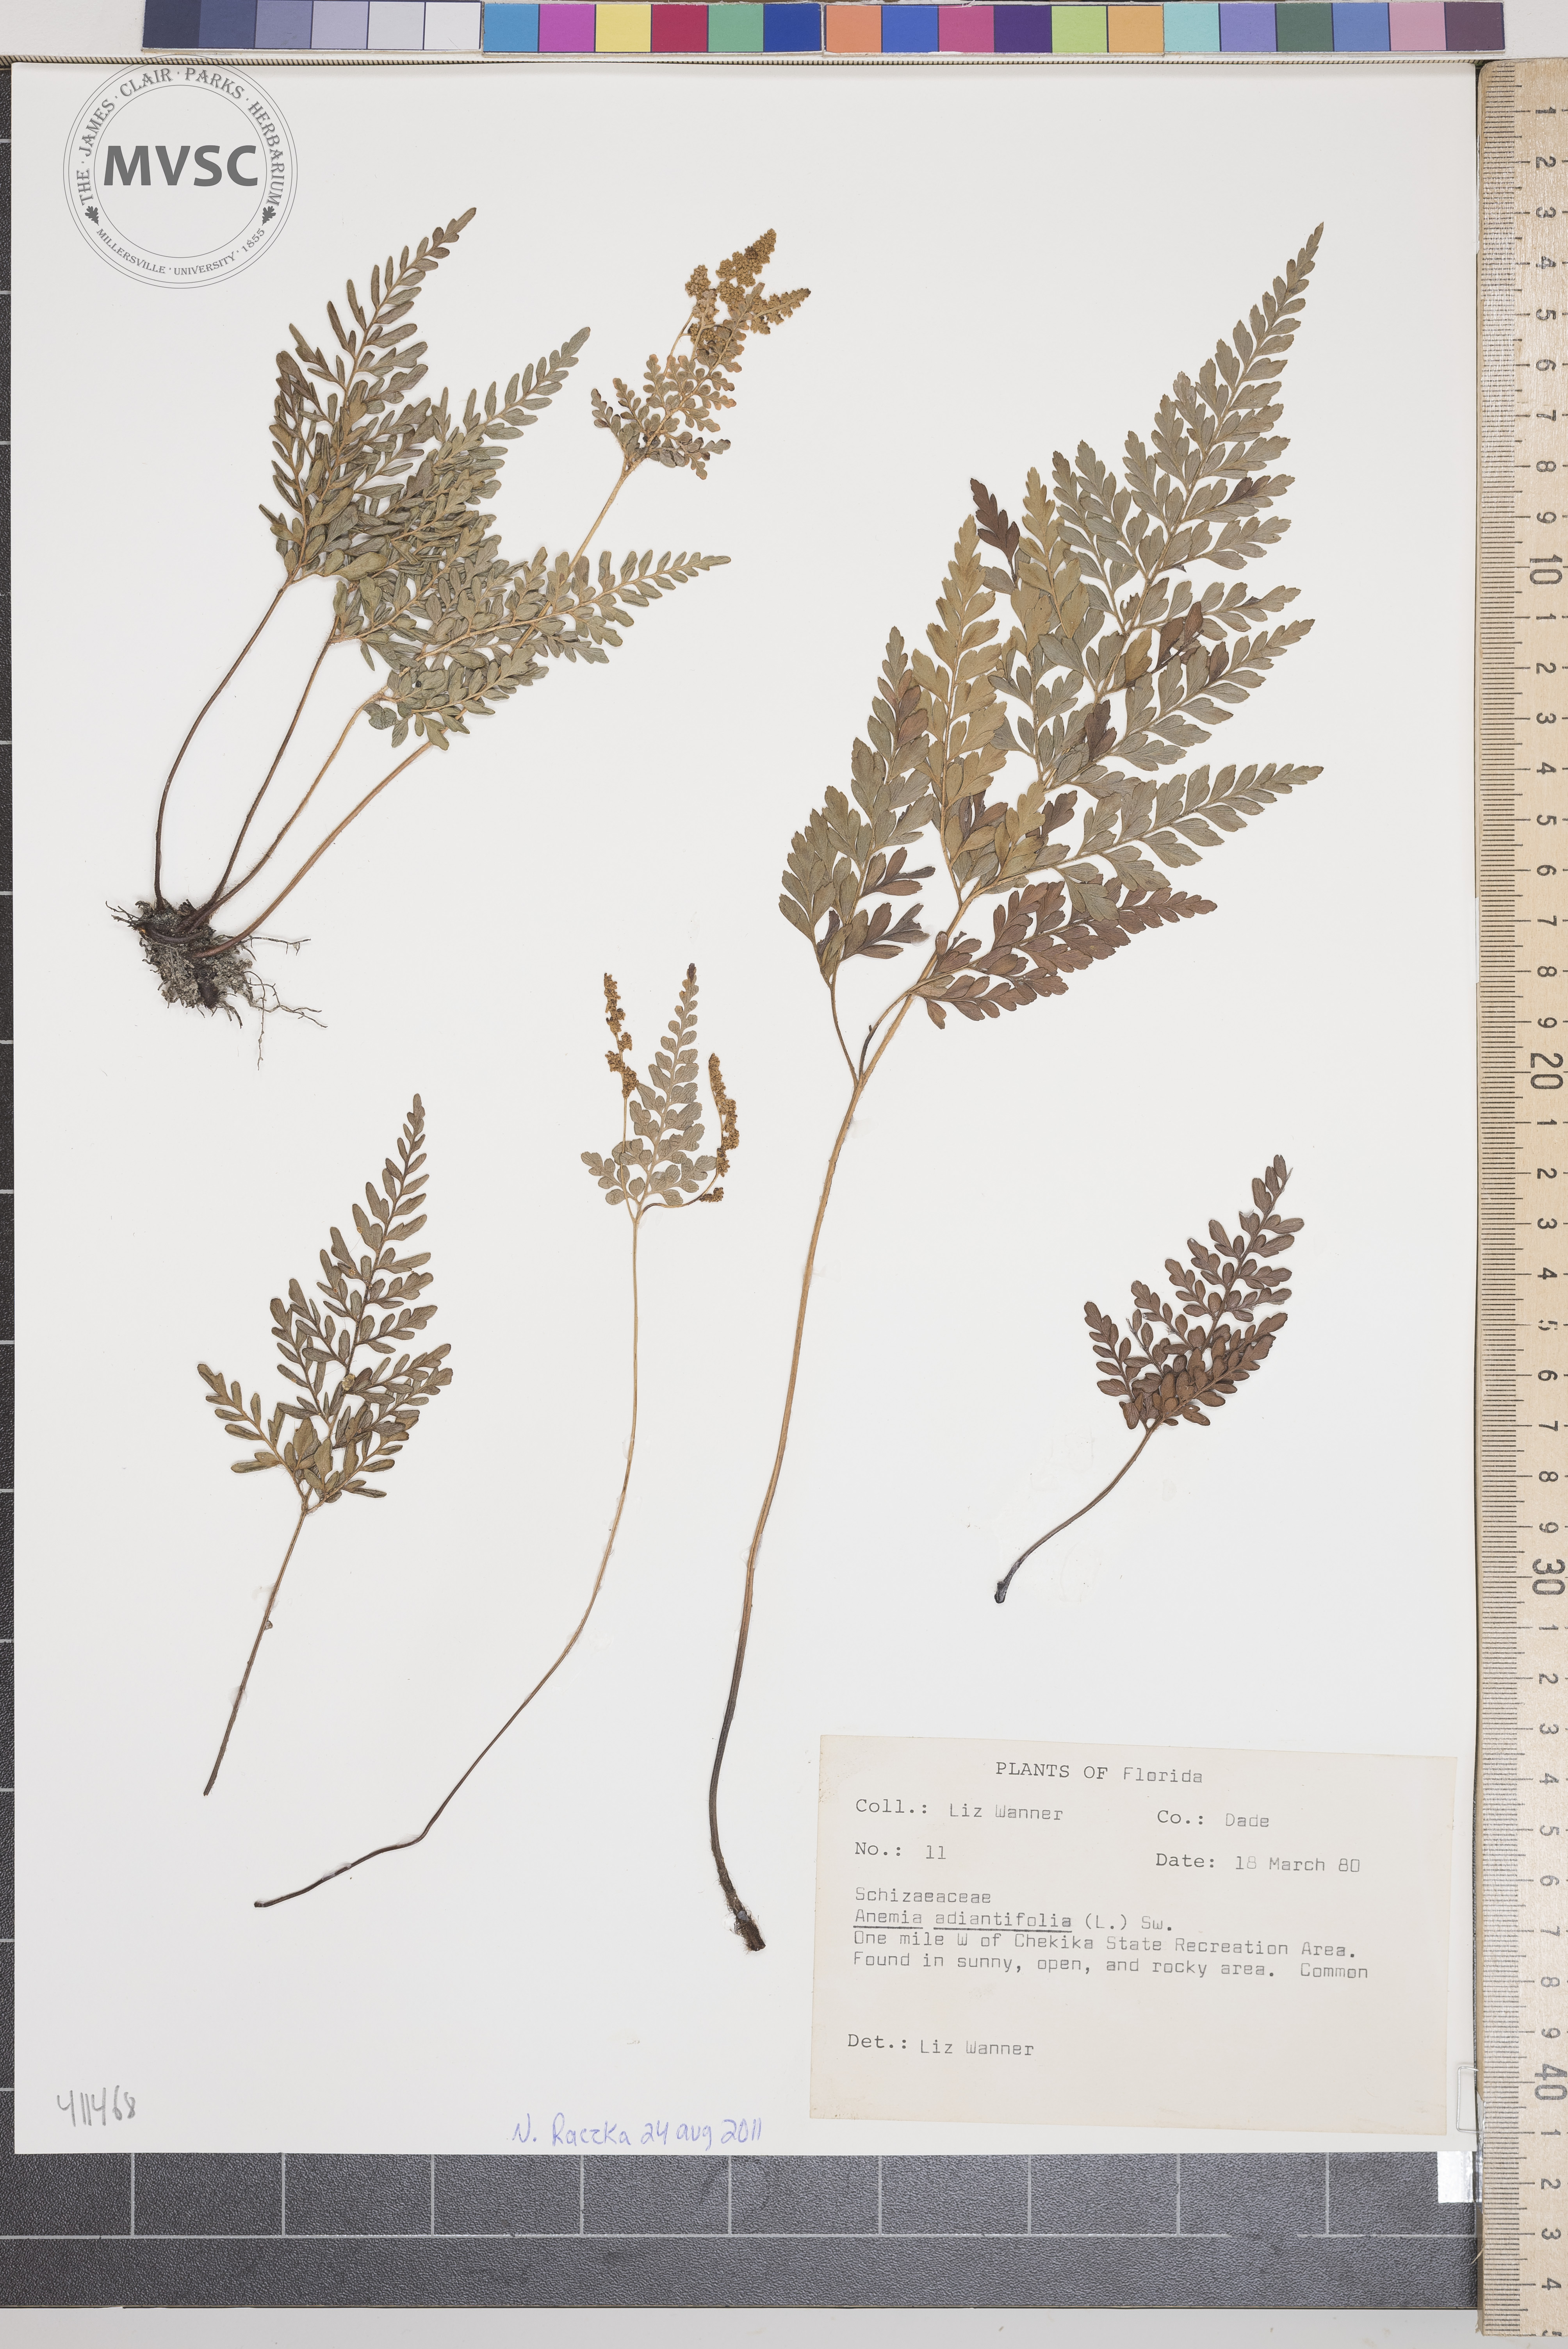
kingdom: Plantae
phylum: Tracheophyta
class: Polypodiopsida
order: Schizaeales
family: Anemiaceae
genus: Anemia
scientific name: Anemia adiantifolia
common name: Pine fern
